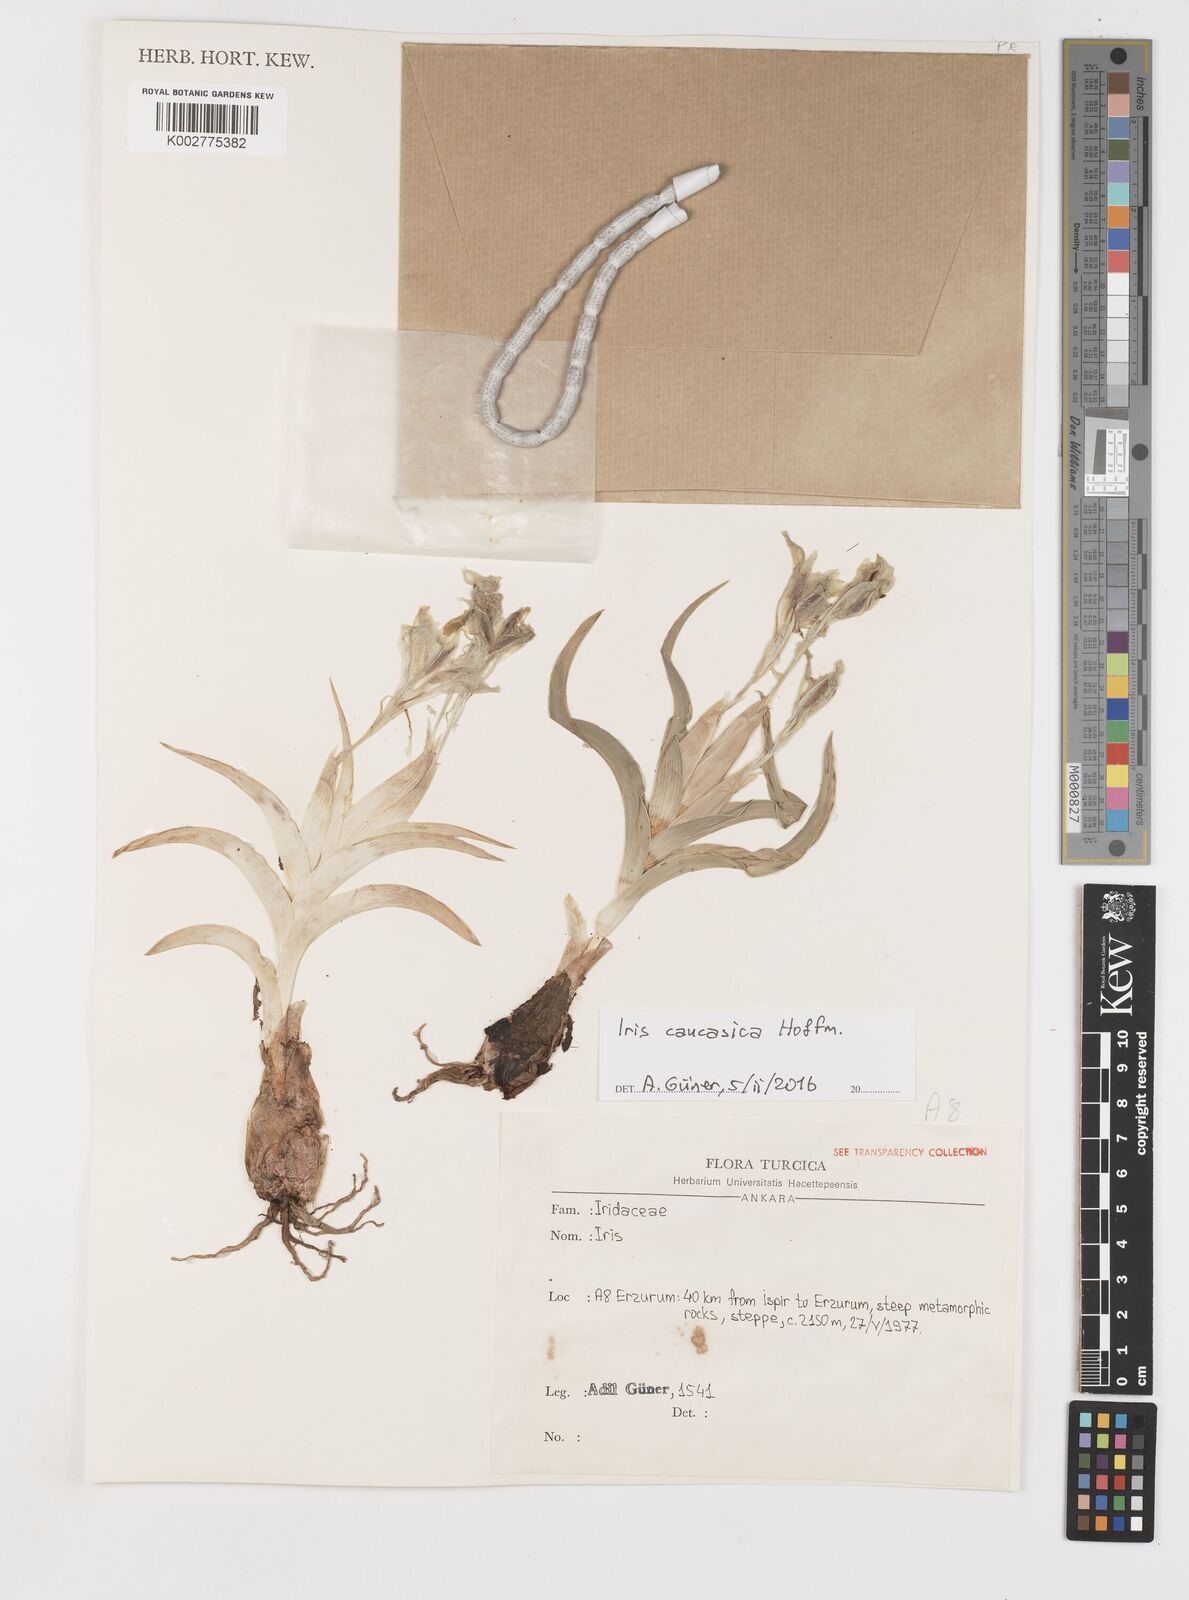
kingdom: Plantae
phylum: Tracheophyta
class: Liliopsida
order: Asparagales
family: Iridaceae
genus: Iris
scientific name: Iris caucasica
